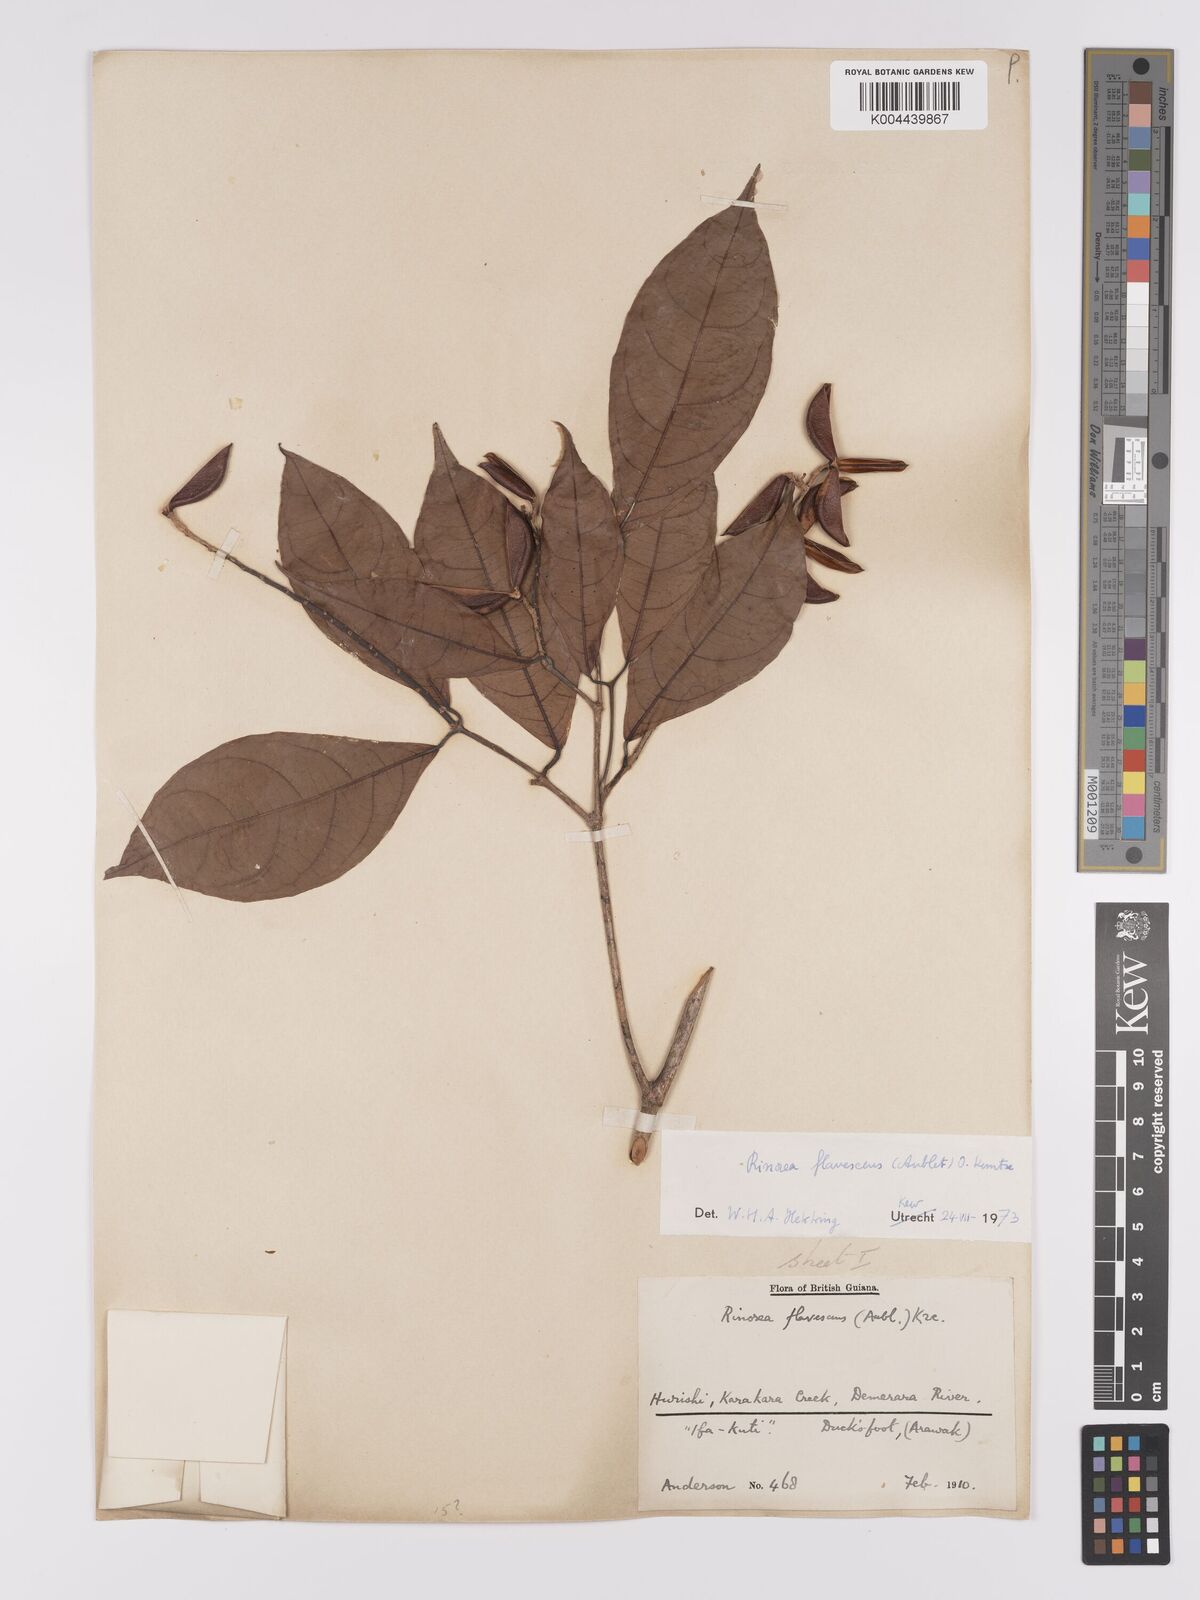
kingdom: Plantae
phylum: Tracheophyta
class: Magnoliopsida
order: Malpighiales
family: Violaceae
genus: Rinorea
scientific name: Rinorea flavescens
